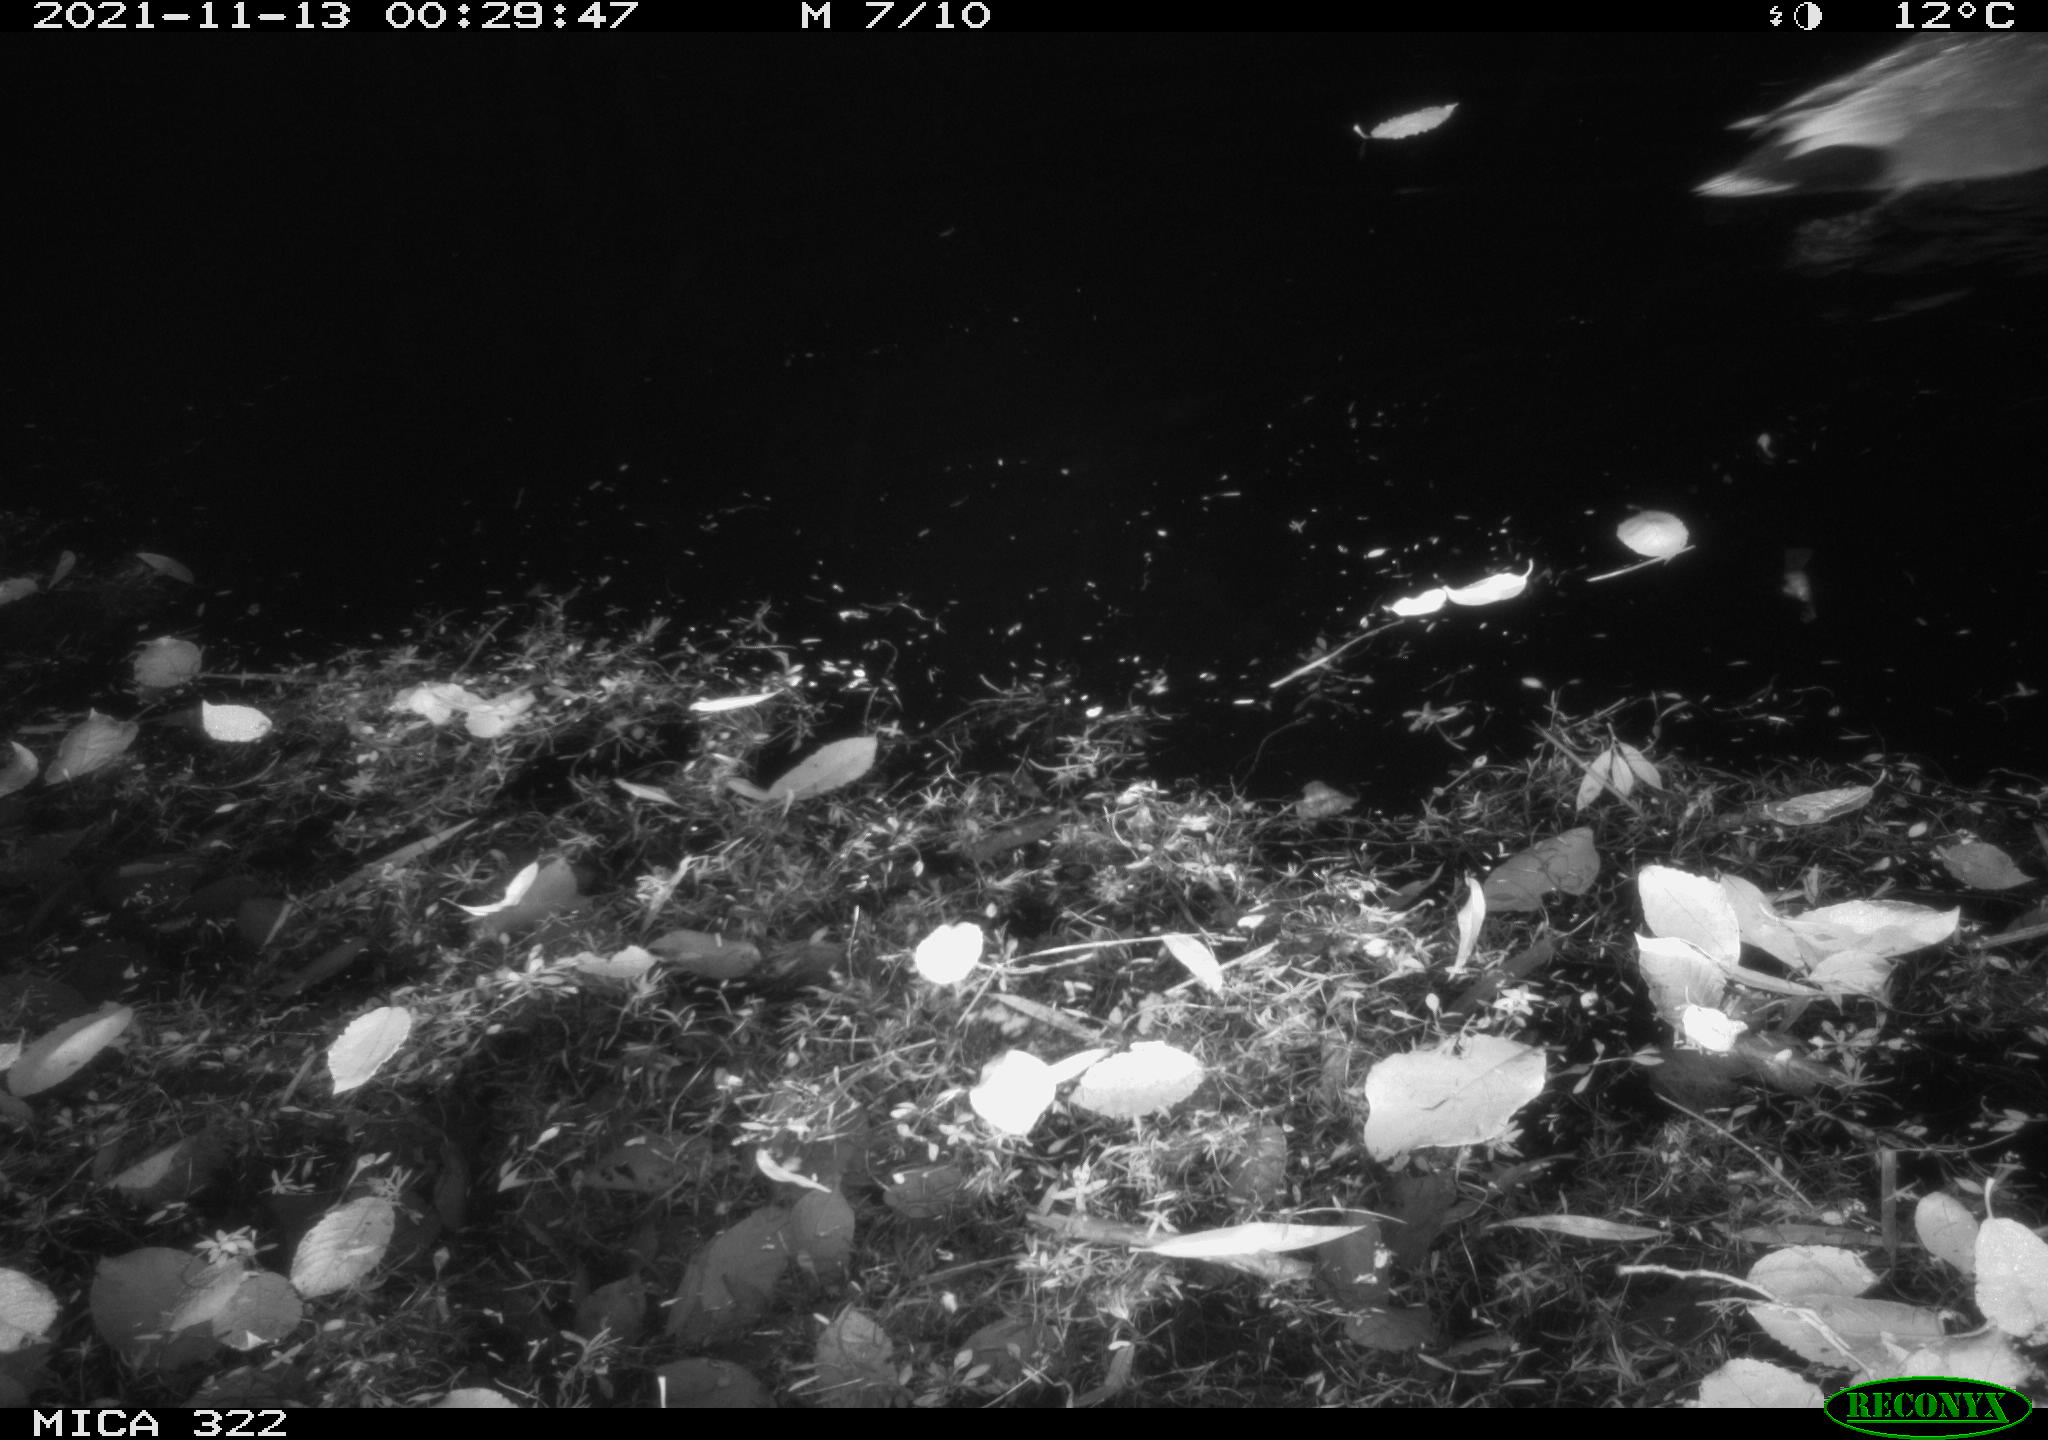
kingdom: Animalia
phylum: Chordata
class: Aves
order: Anseriformes
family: Anatidae
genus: Anas
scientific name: Anas platyrhynchos
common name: Mallard
